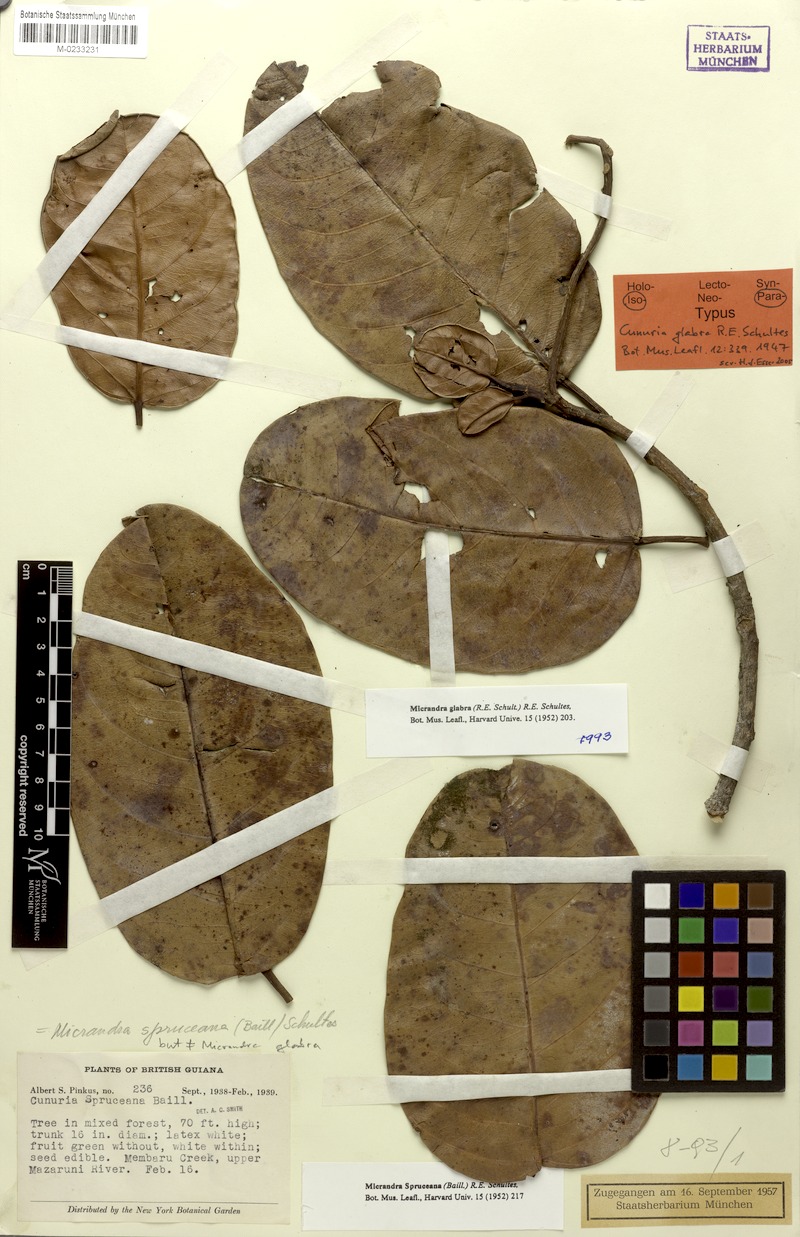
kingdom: Plantae
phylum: Tracheophyta
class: Magnoliopsida
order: Malpighiales
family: Euphorbiaceae
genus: Micrandra
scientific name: Micrandra spruceana
